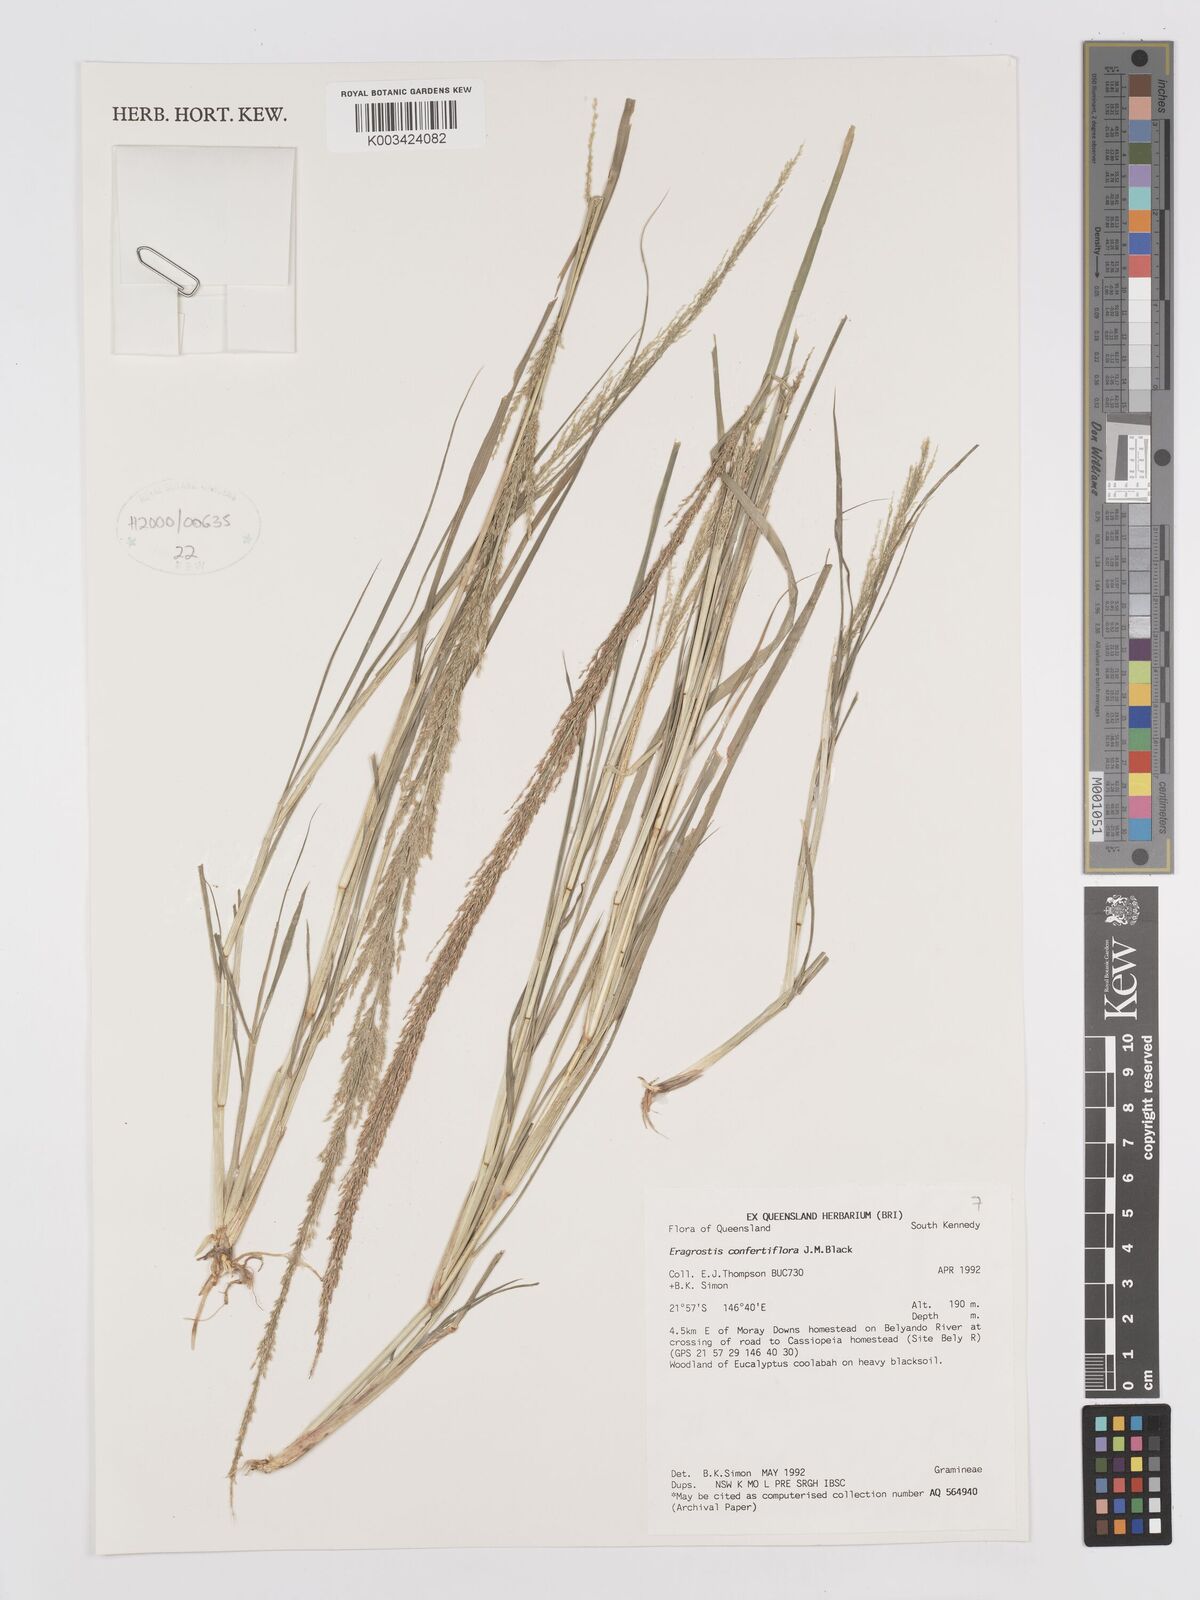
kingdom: Plantae
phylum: Tracheophyta
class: Liliopsida
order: Poales
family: Poaceae
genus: Eragrostis
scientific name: Eragrostis confertiflora
